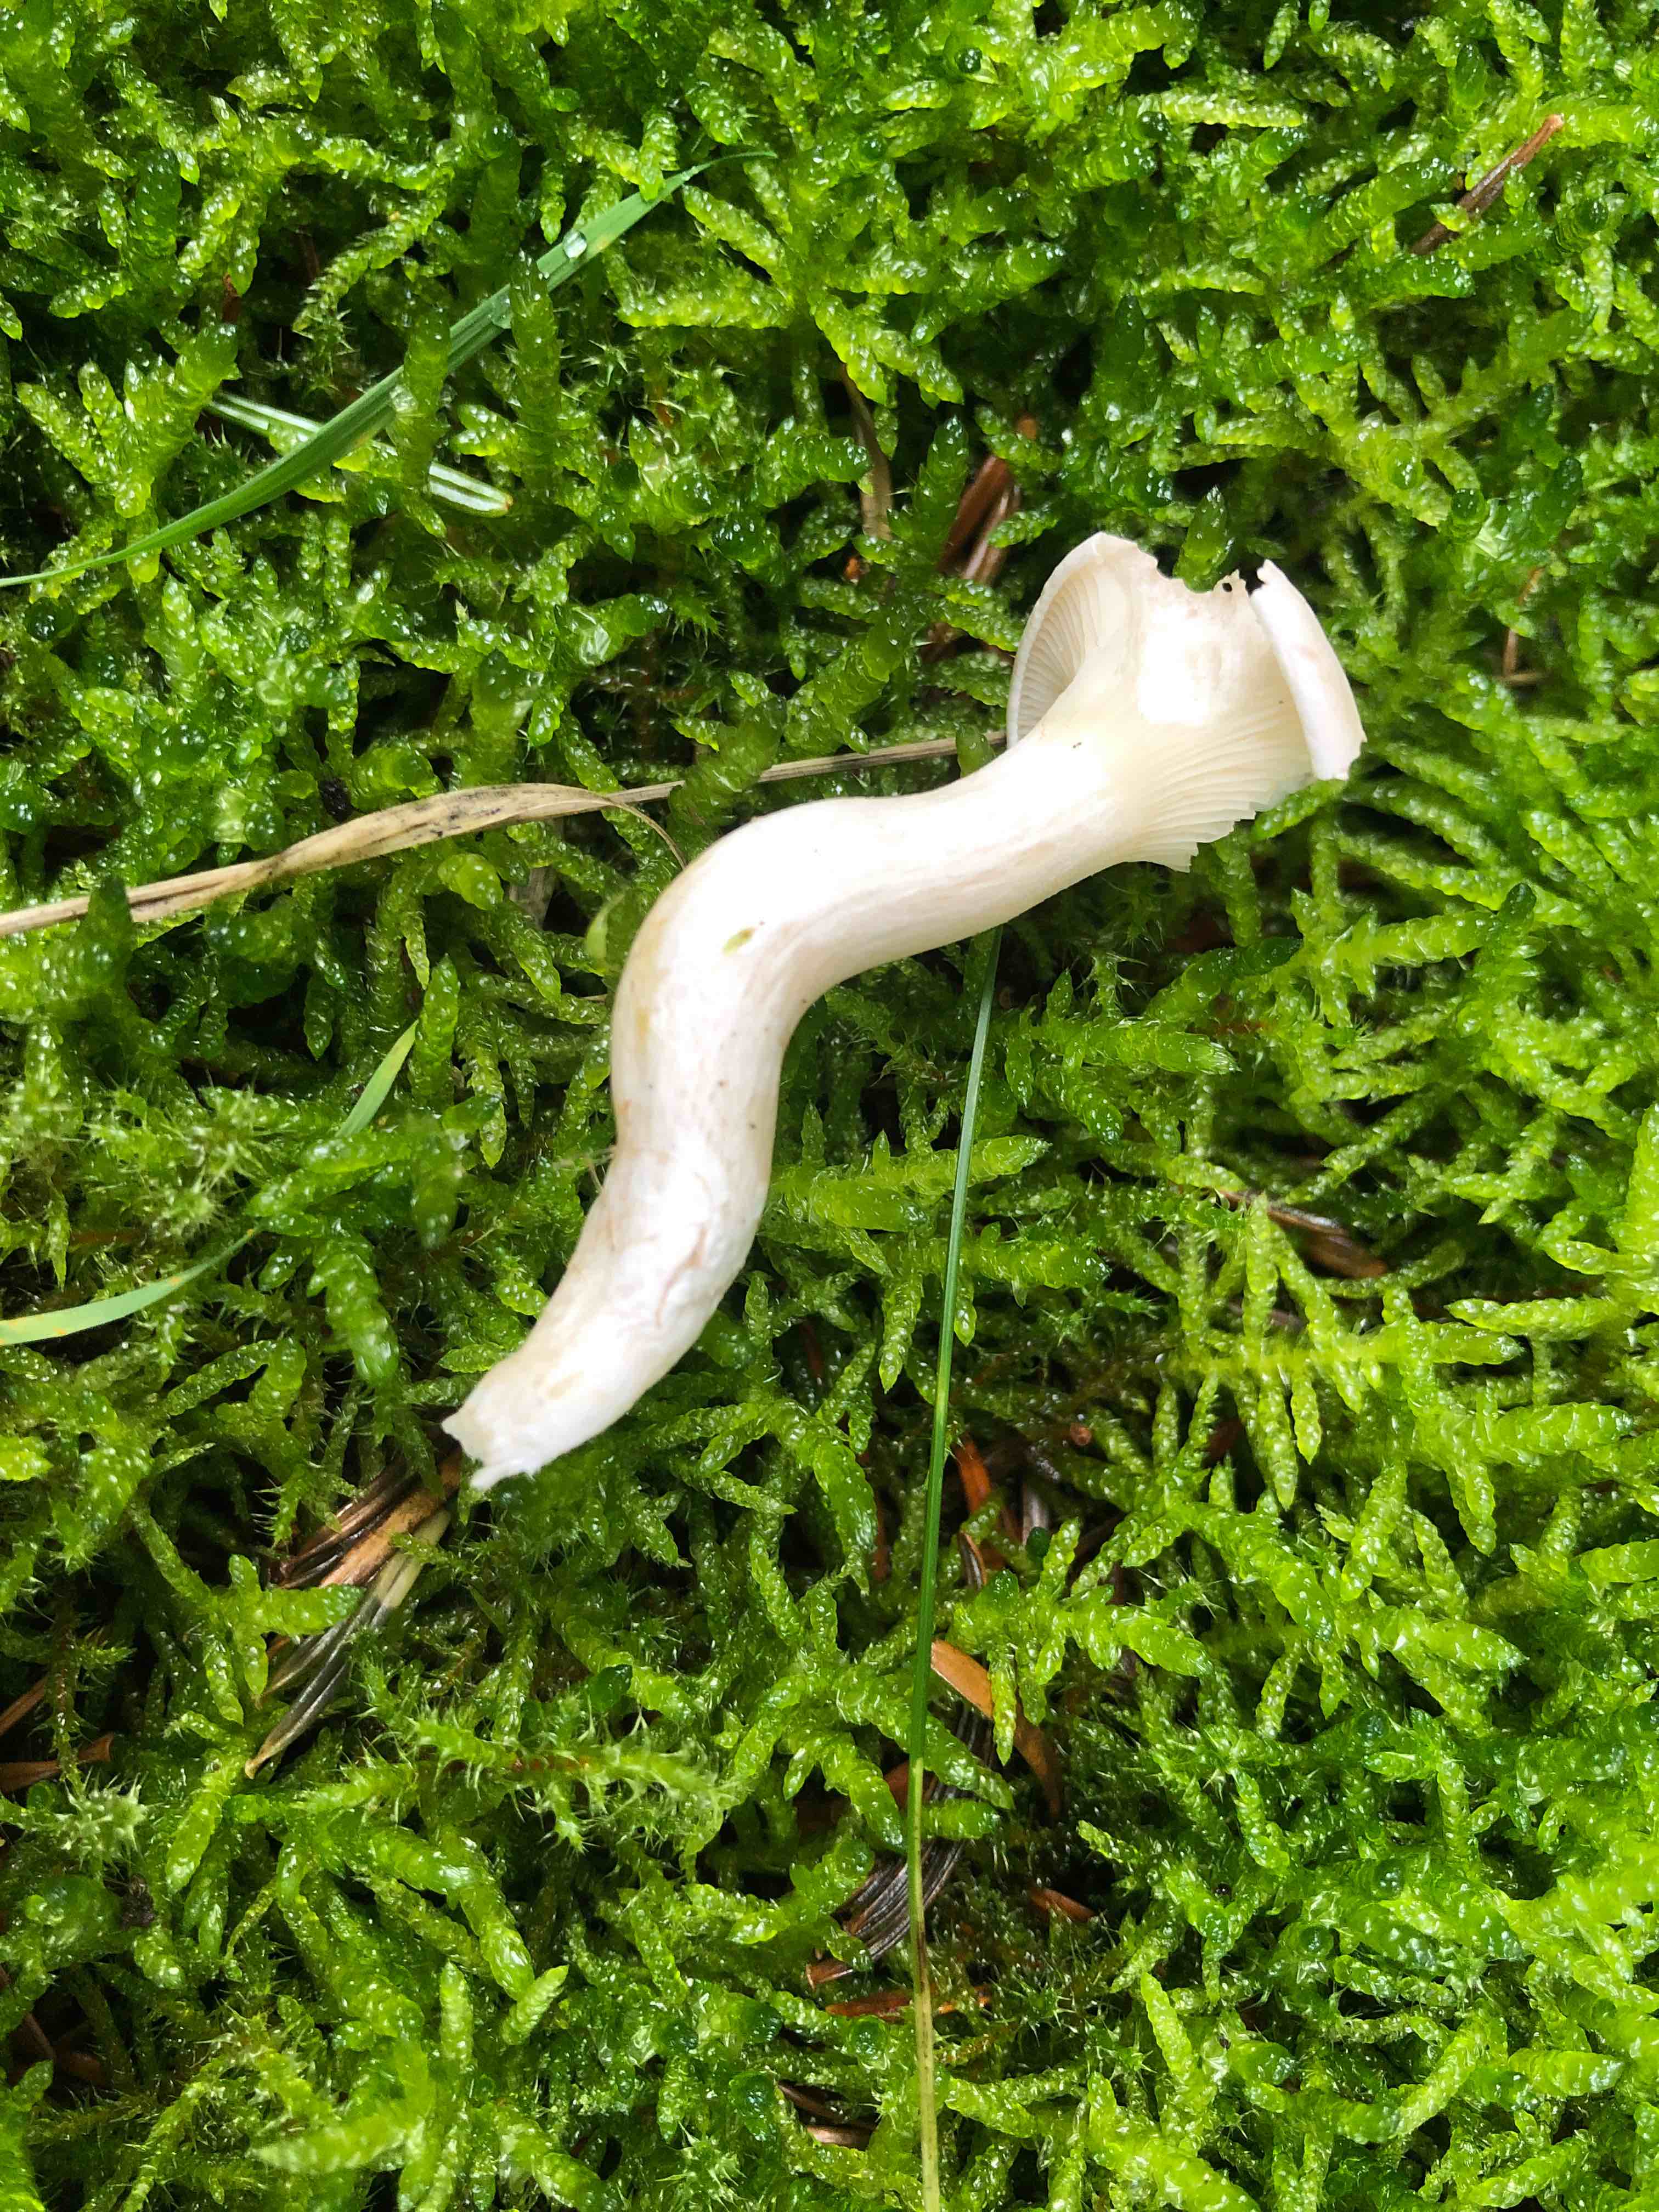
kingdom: Fungi
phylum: Basidiomycota
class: Agaricomycetes
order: Agaricales
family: Entolomataceae
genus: Clitopilus
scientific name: Clitopilus prunulus
